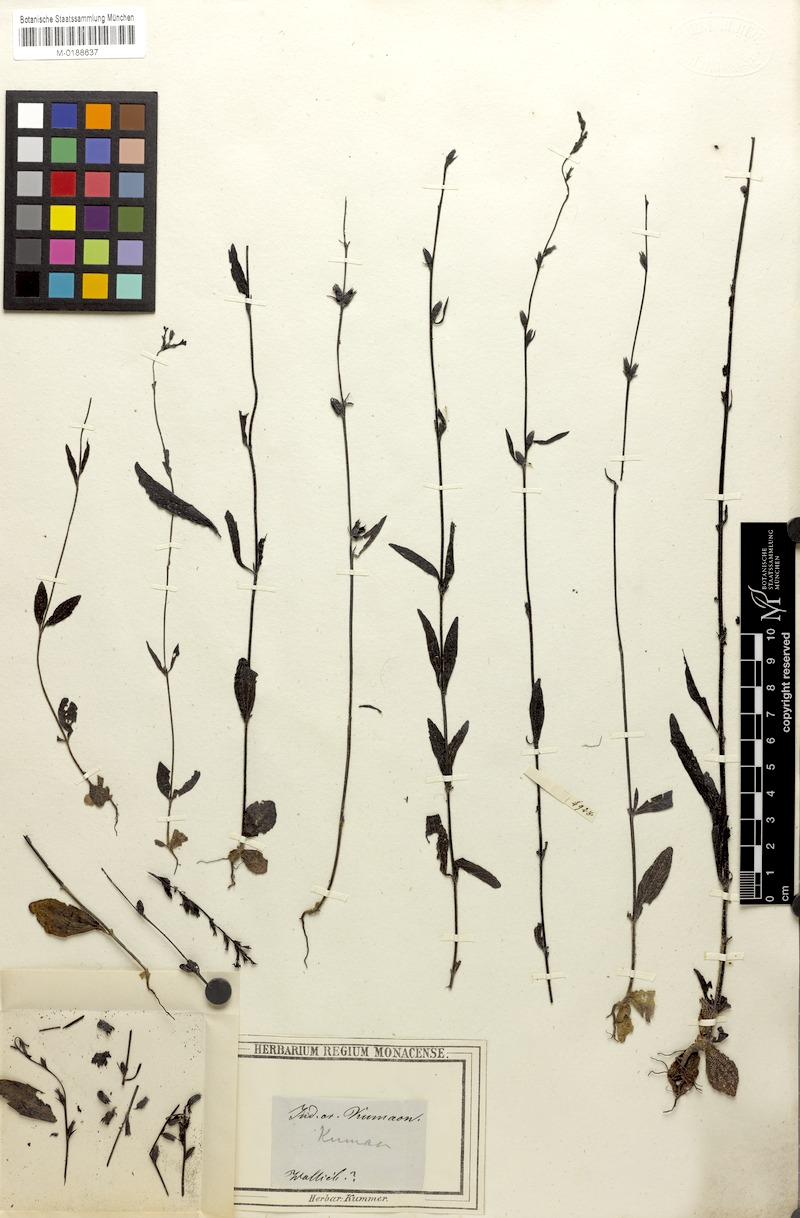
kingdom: Plantae
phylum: Tracheophyta
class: Magnoliopsida
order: Lamiales
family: Orobanchaceae
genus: Buchnera
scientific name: Buchnera cruciata
